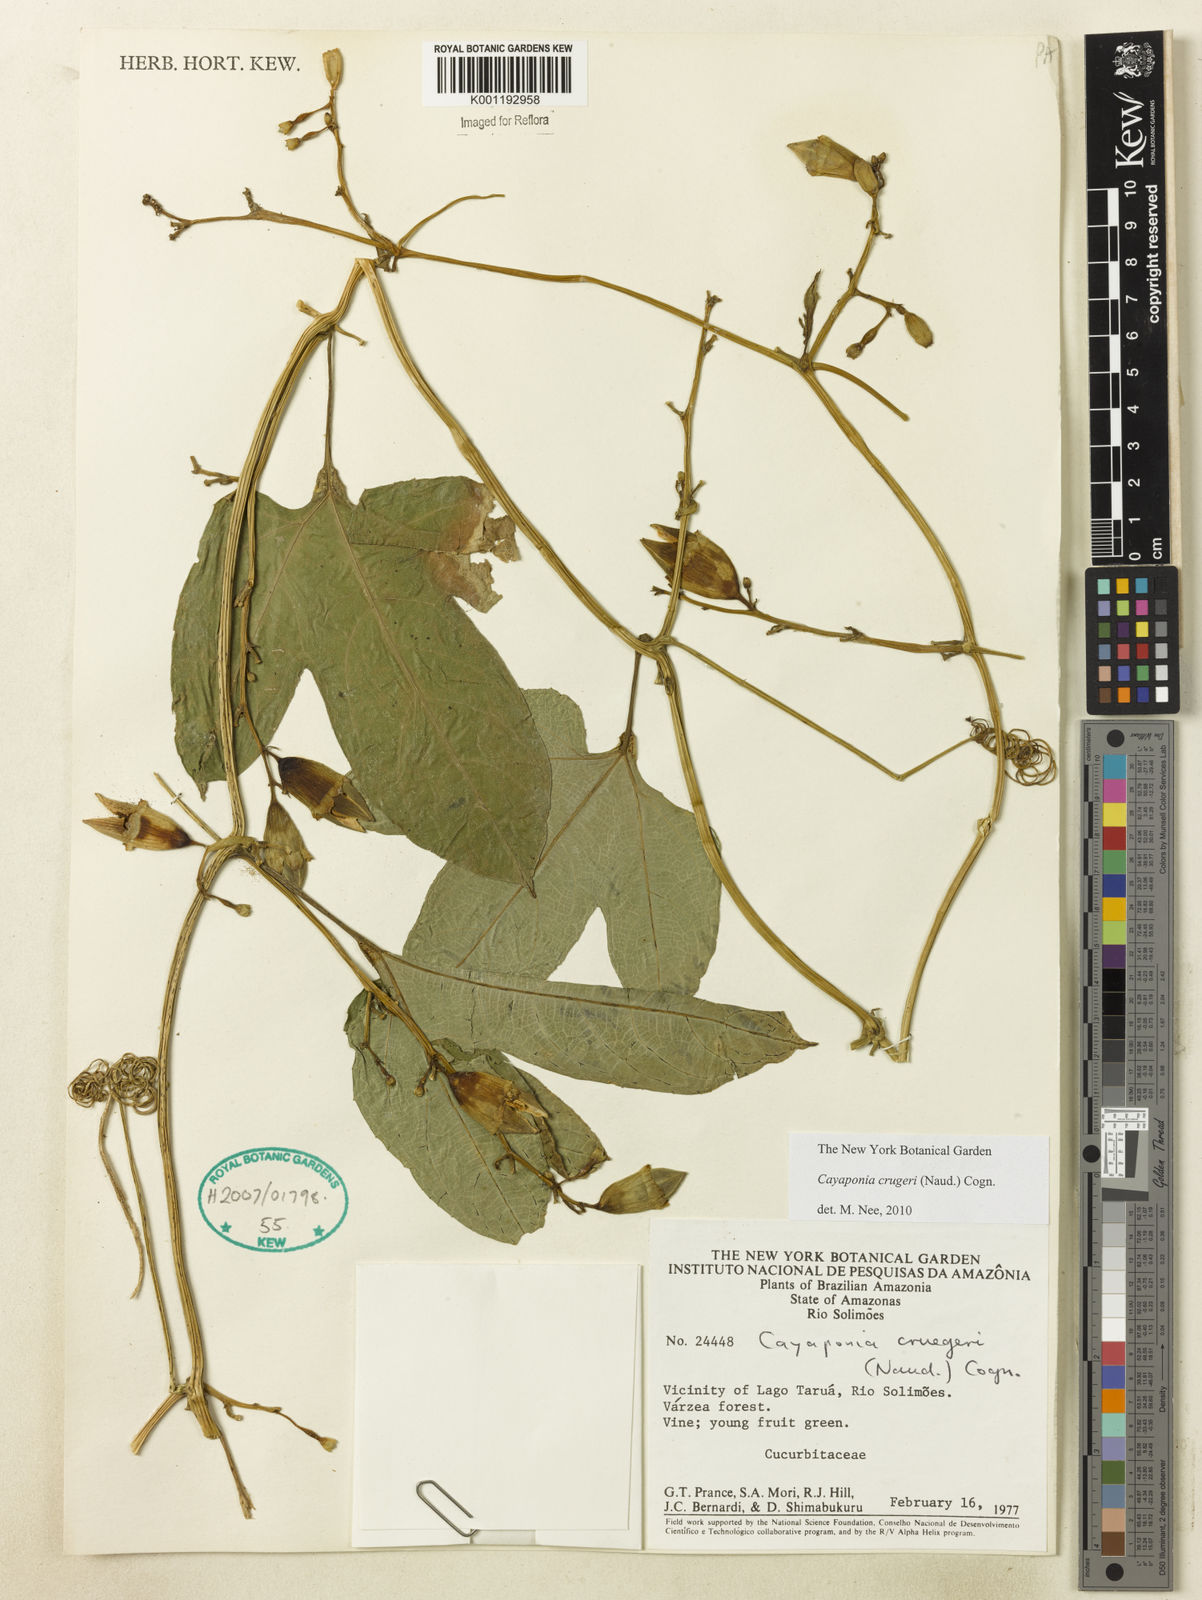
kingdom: Plantae
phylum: Tracheophyta
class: Magnoliopsida
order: Cucurbitales
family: Cucurbitaceae
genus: Cayaponia
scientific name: Cayaponia cruegeri
